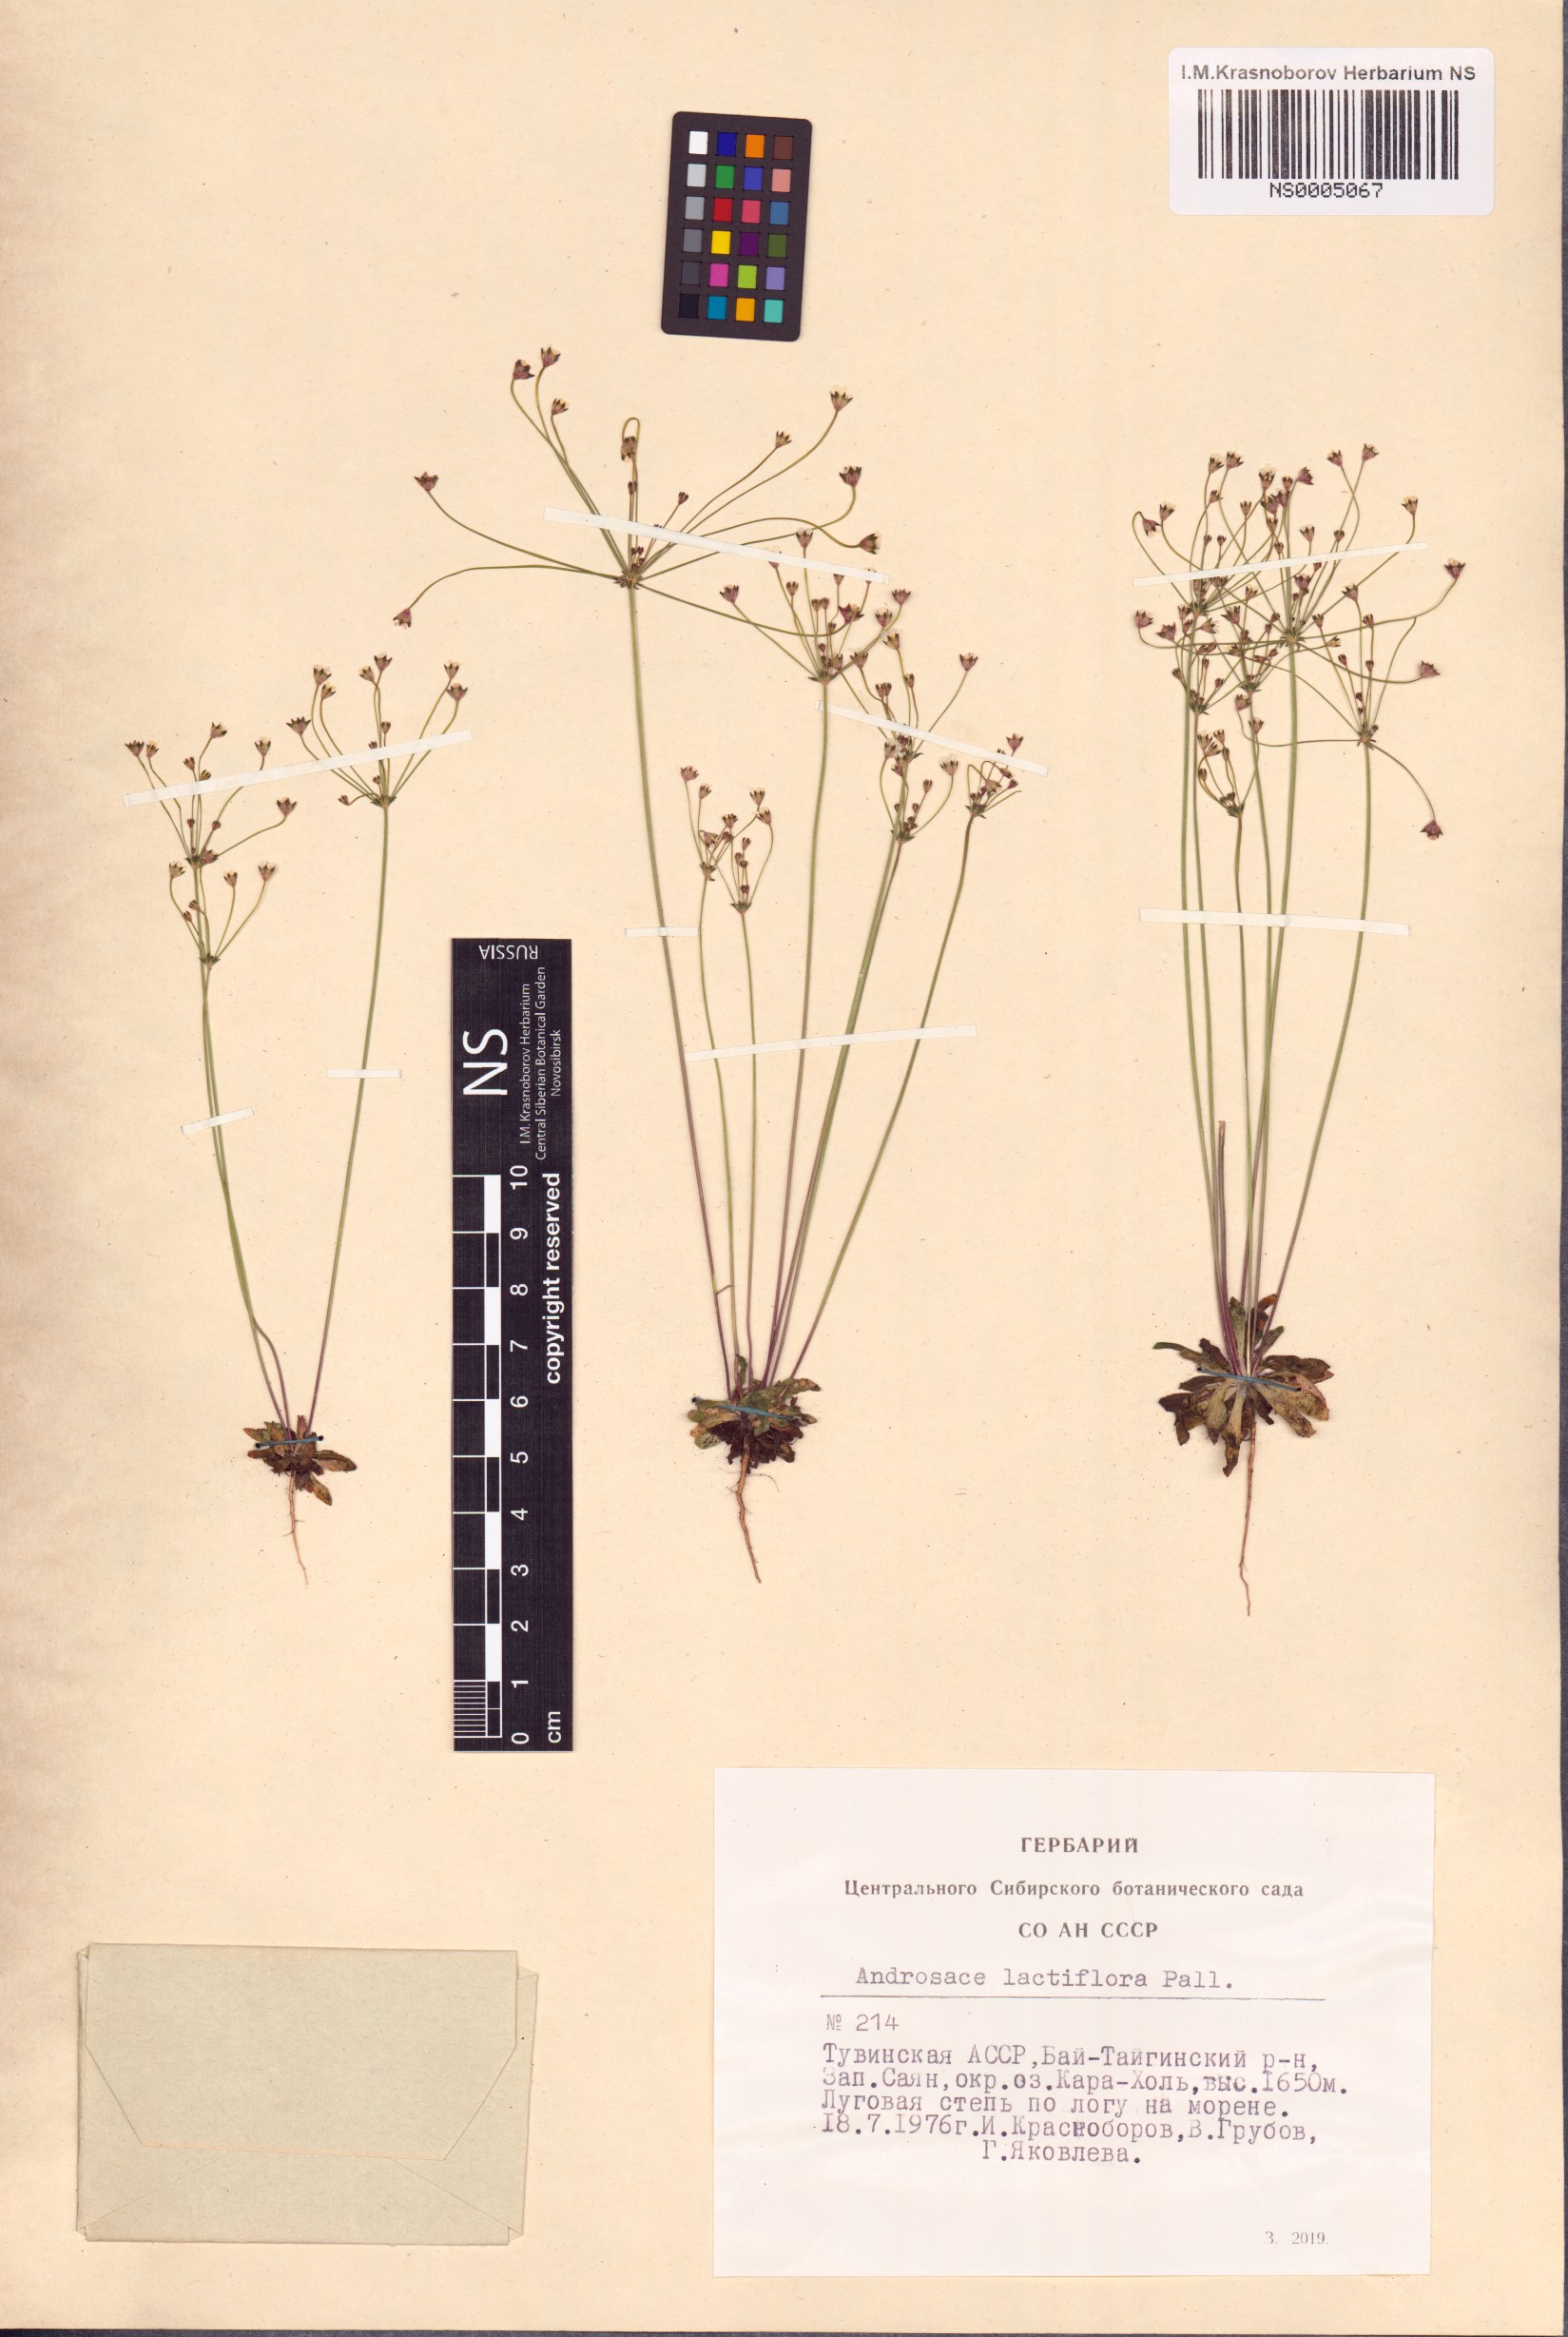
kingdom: Plantae
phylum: Tracheophyta
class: Magnoliopsida
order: Ericales
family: Primulaceae
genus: Androsace
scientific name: Androsace lactiflora
